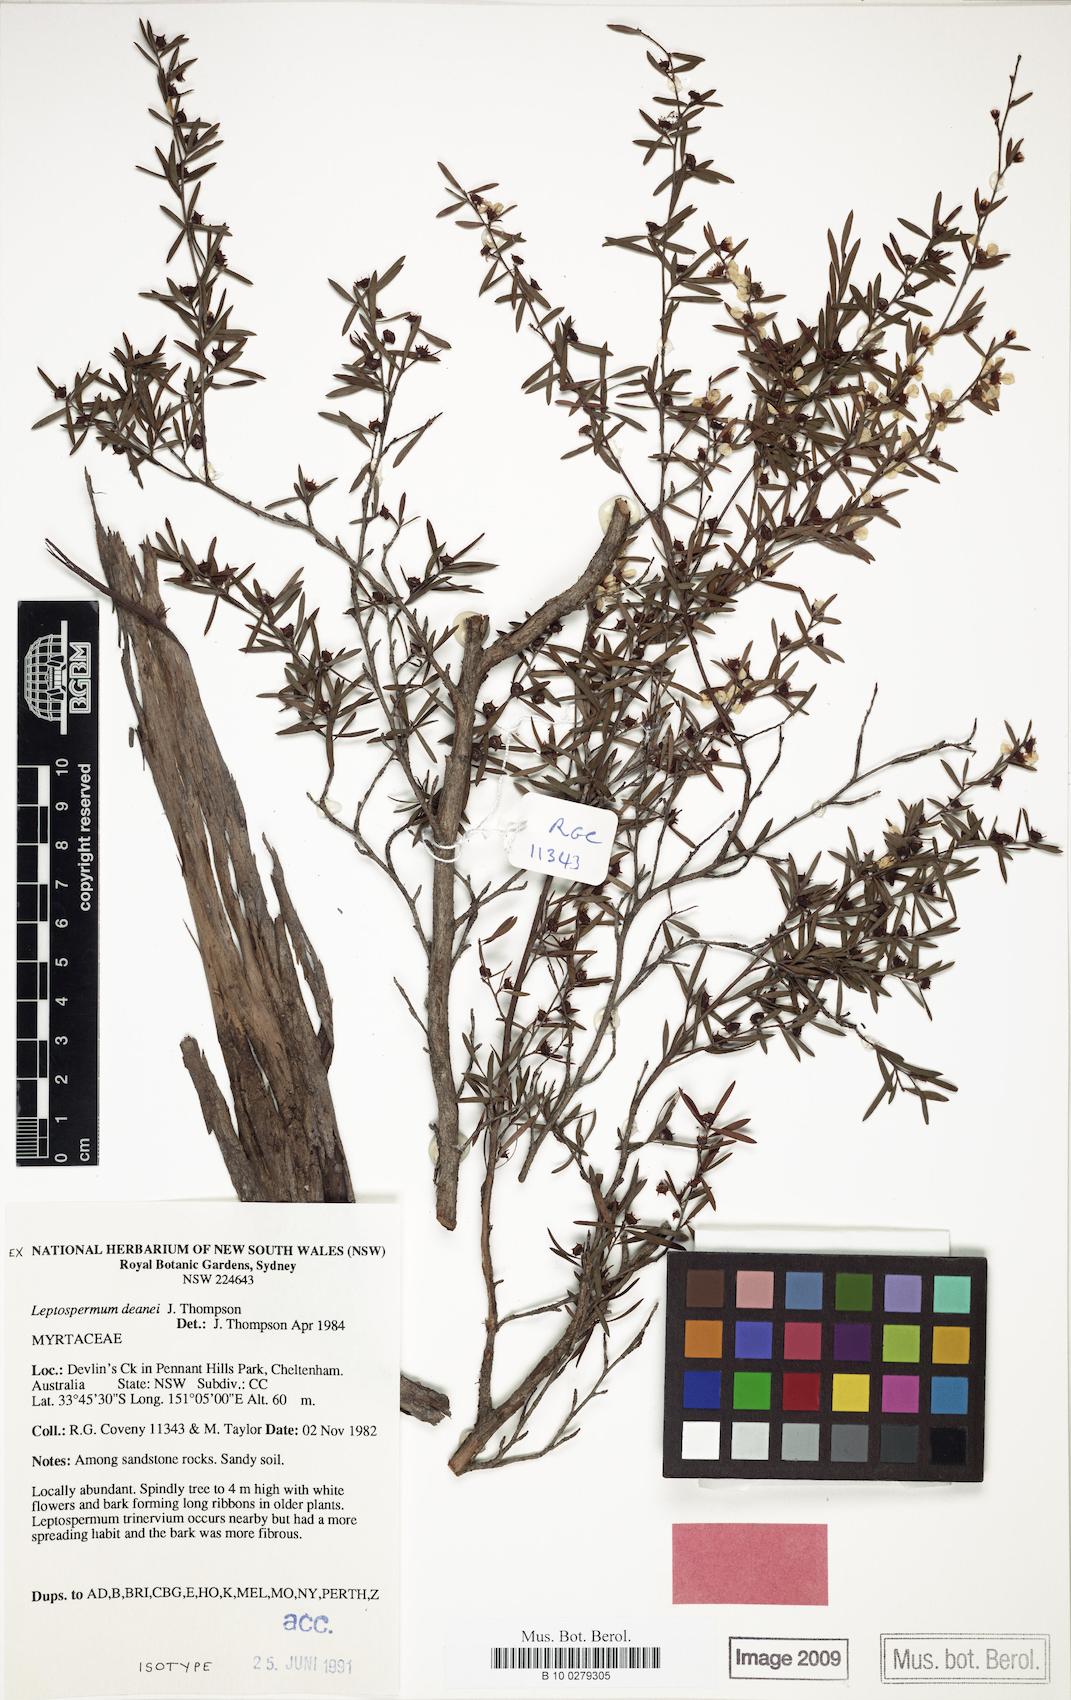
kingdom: Plantae
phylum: Tracheophyta
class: Magnoliopsida
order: Myrtales
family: Myrtaceae
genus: Leptospermum
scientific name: Leptospermum deanei
